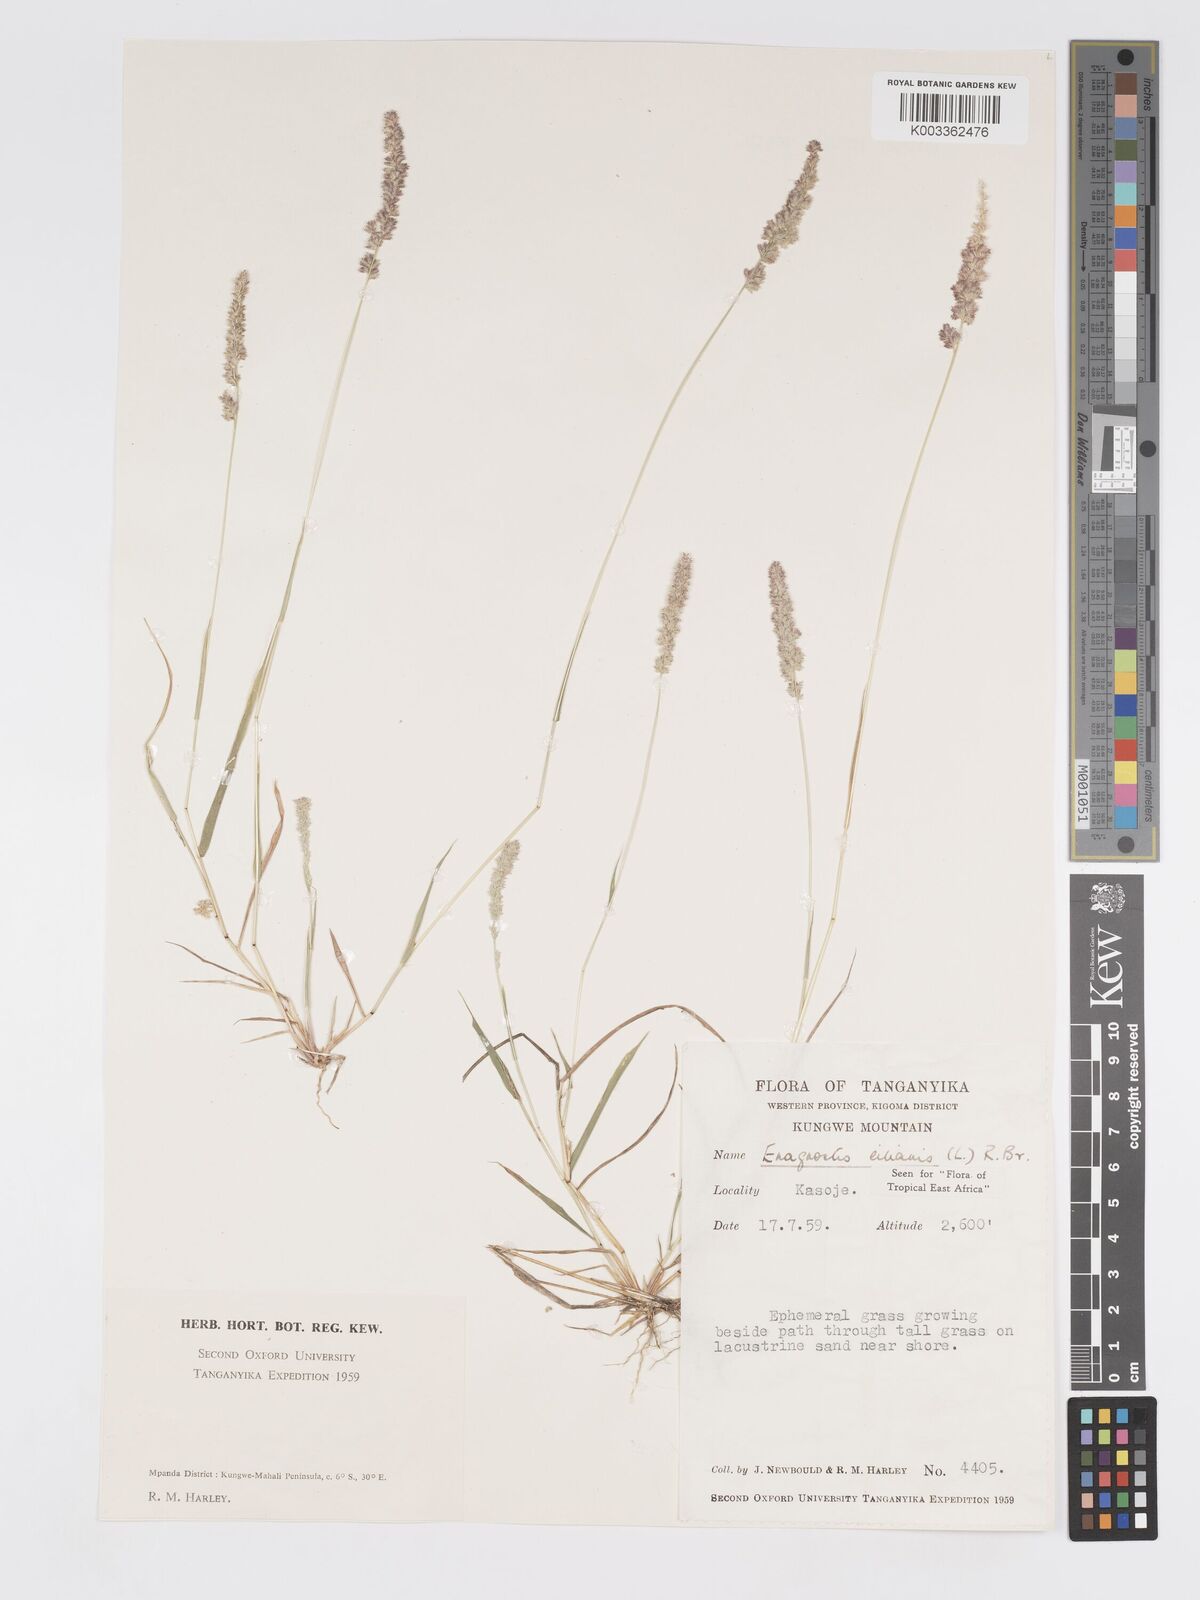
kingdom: Plantae
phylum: Tracheophyta
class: Liliopsida
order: Poales
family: Poaceae
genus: Eragrostis
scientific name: Eragrostis ciliaris
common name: Gophertail lovegrass
